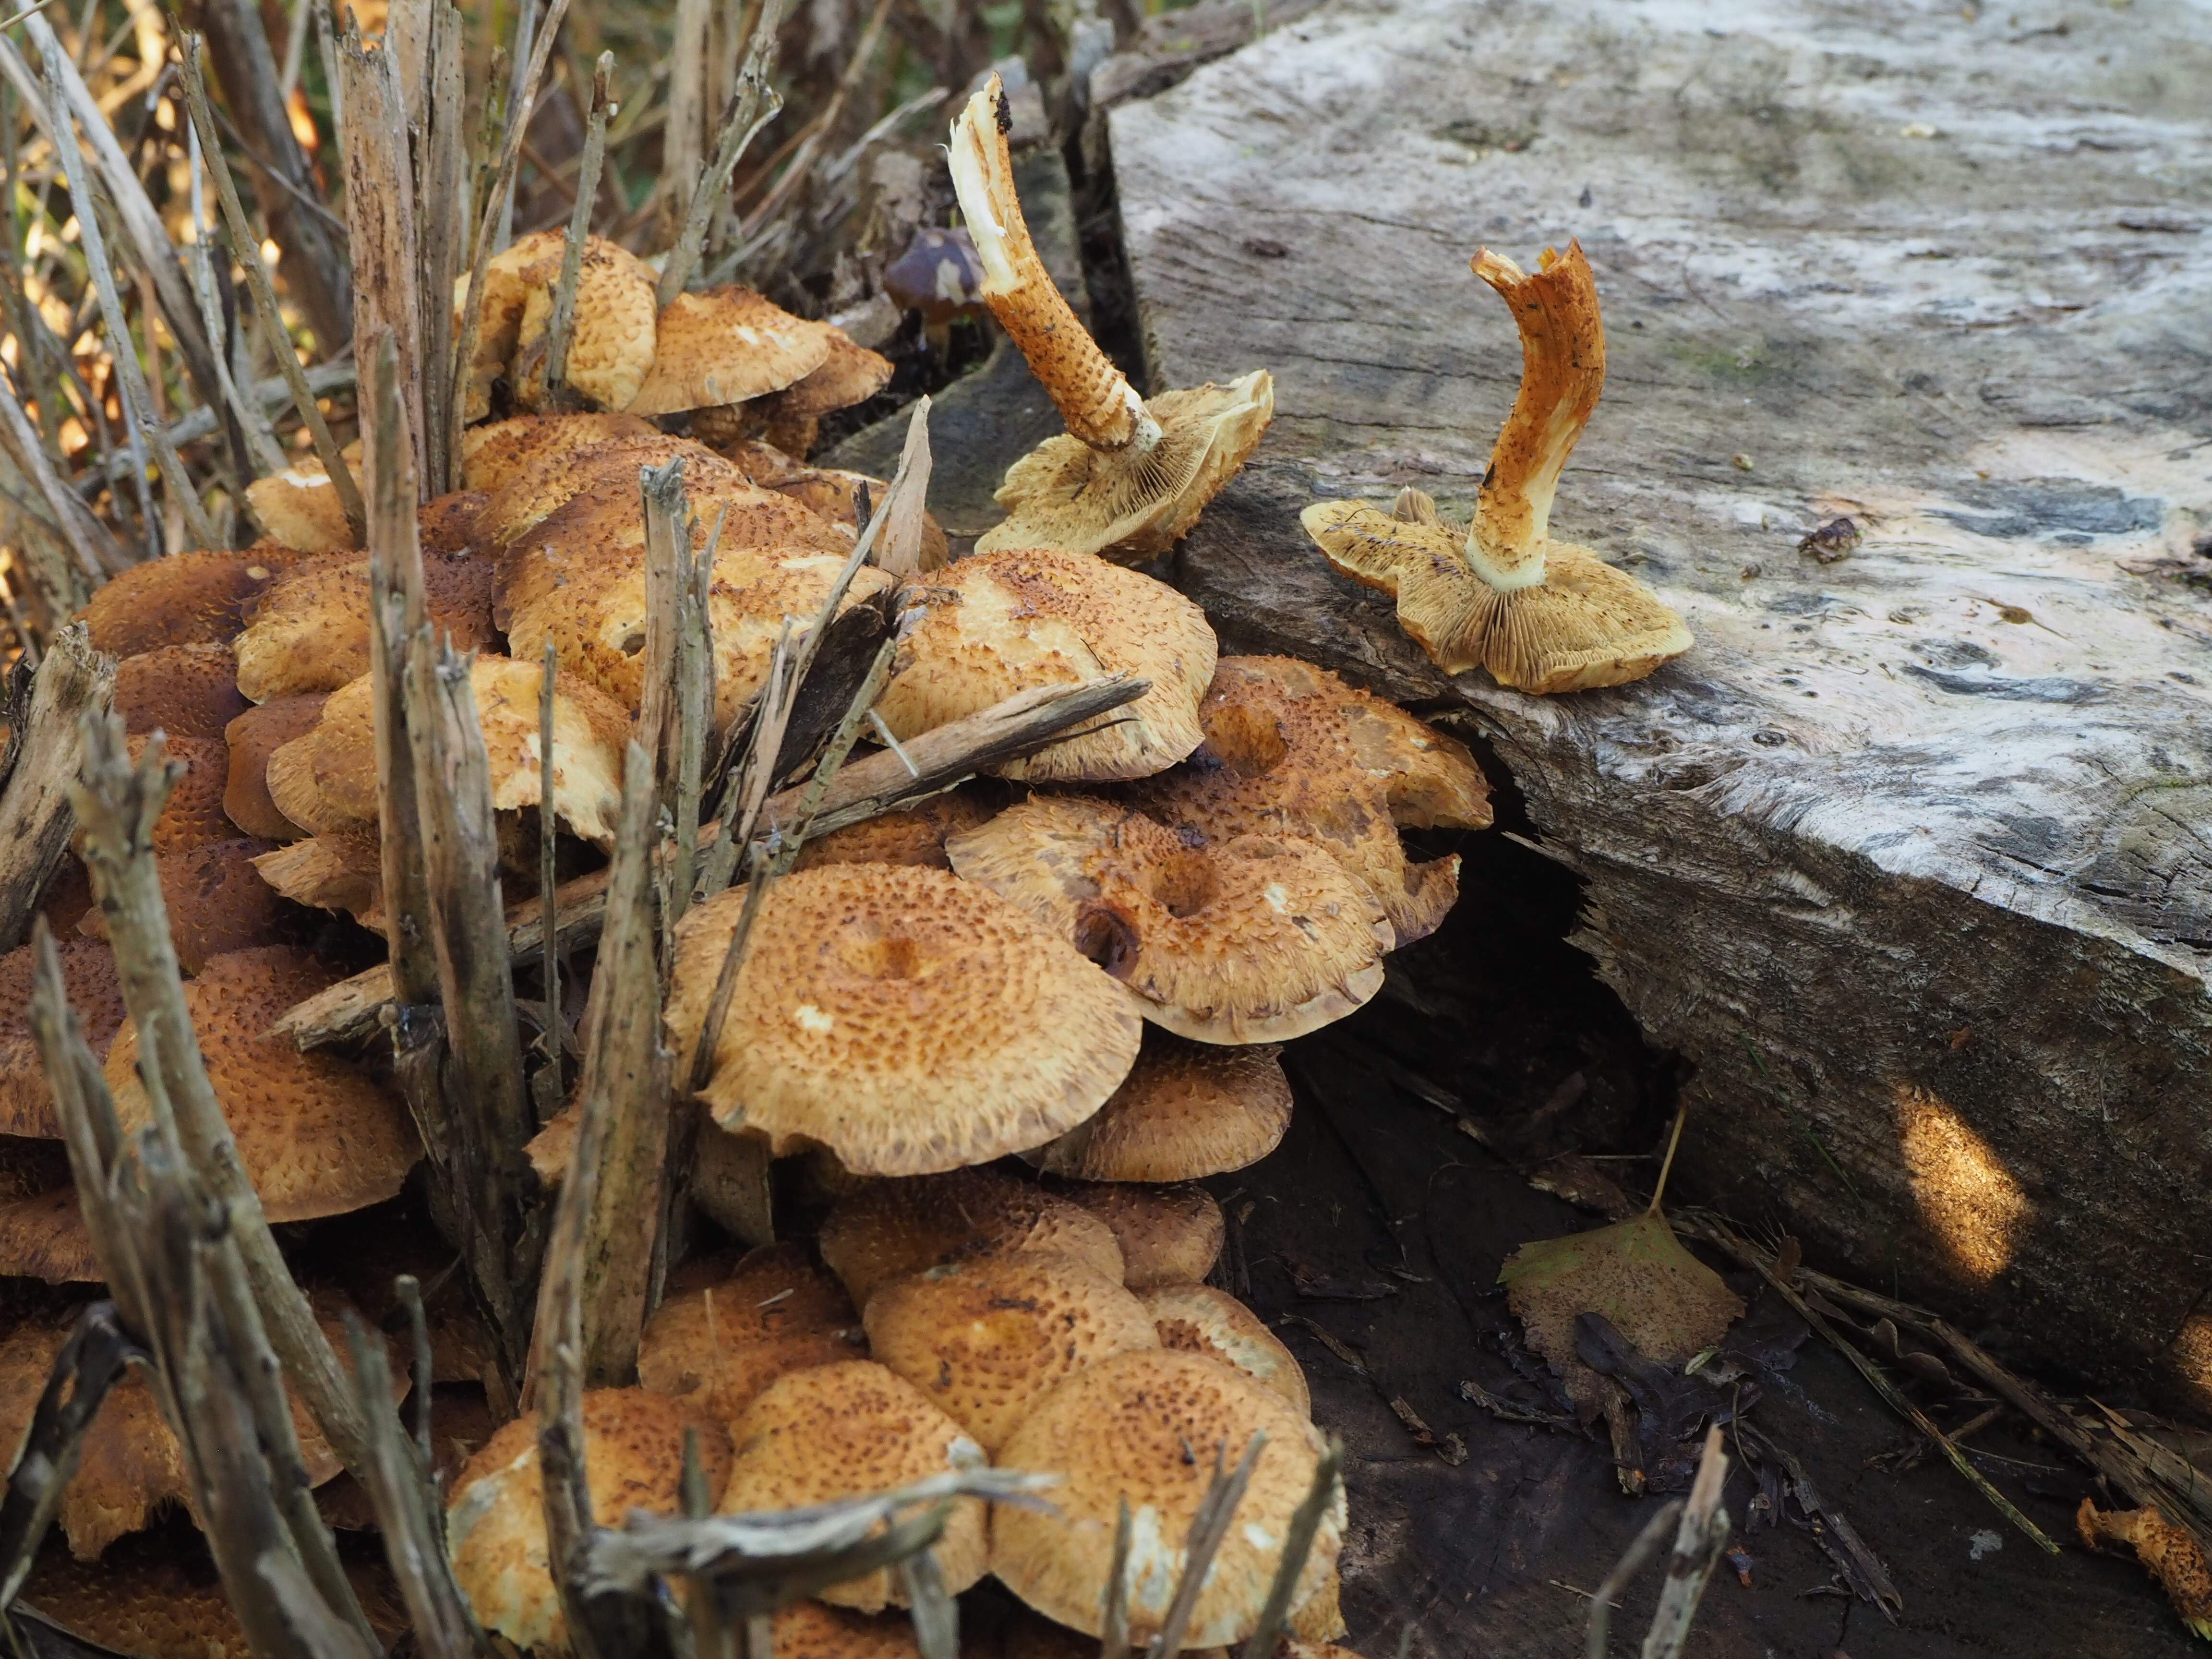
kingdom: Fungi
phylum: Basidiomycota
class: Agaricomycetes
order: Agaricales
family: Strophariaceae
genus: Pholiota
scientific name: Pholiota squarrosa
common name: Shaggy pholiota
